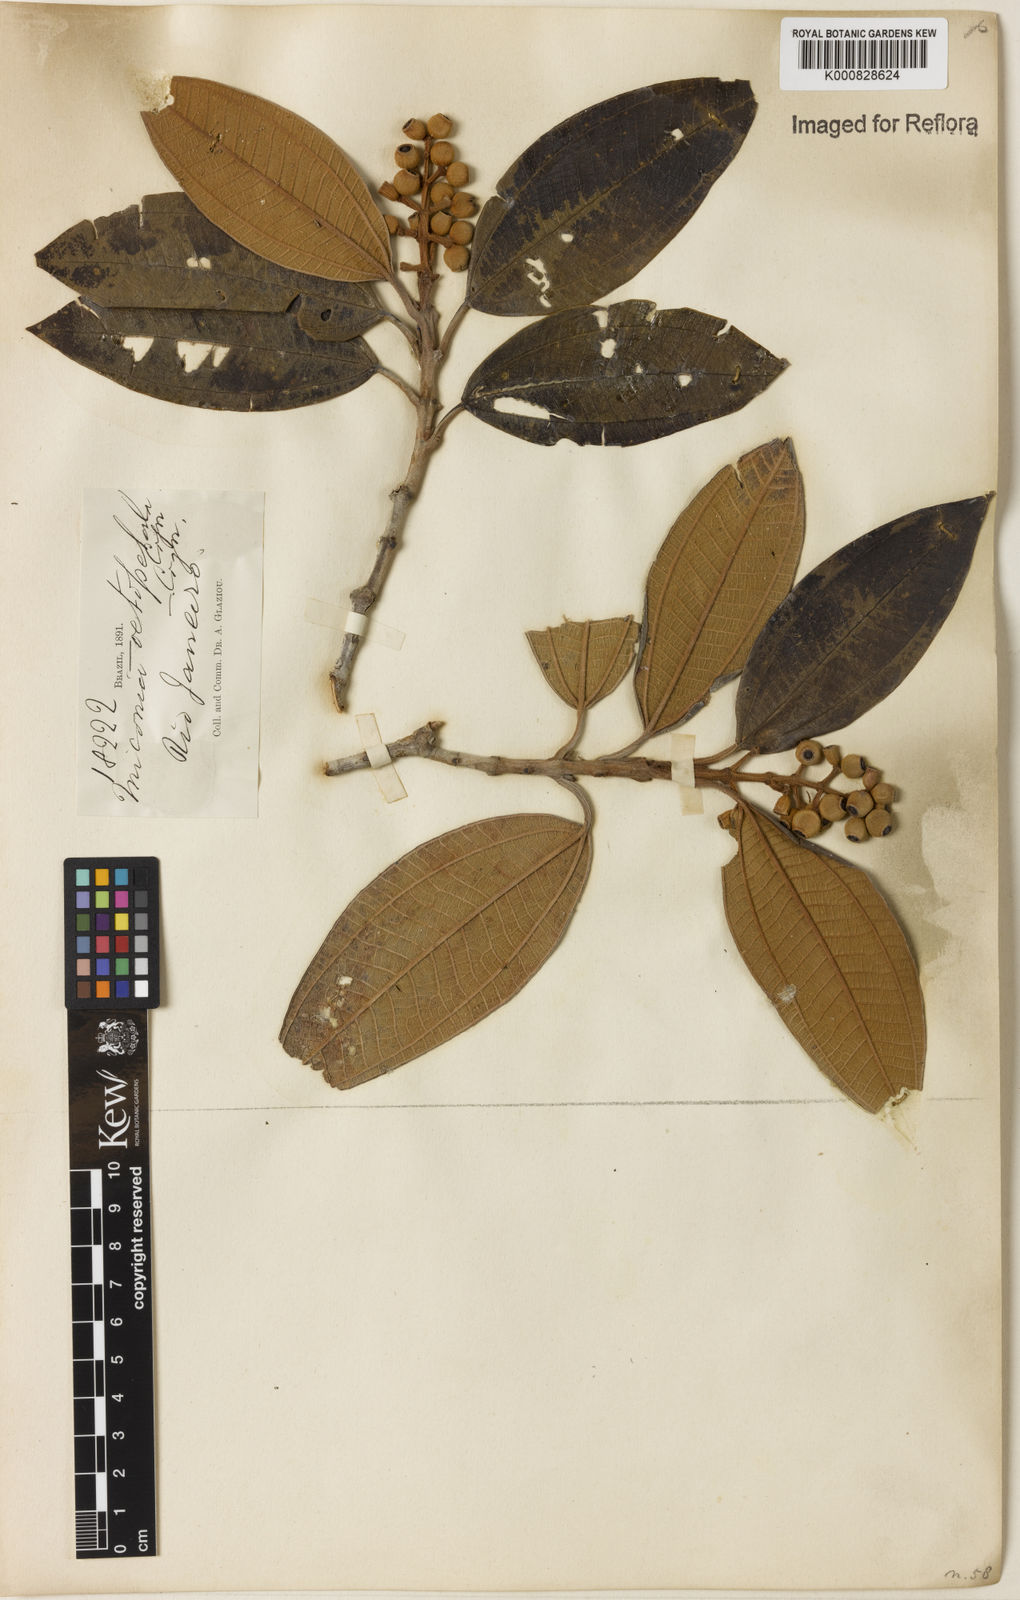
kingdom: Plantae
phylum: Tracheophyta
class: Magnoliopsida
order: Myrtales
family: Melastomataceae
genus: Miconia
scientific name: Miconia octopetala
